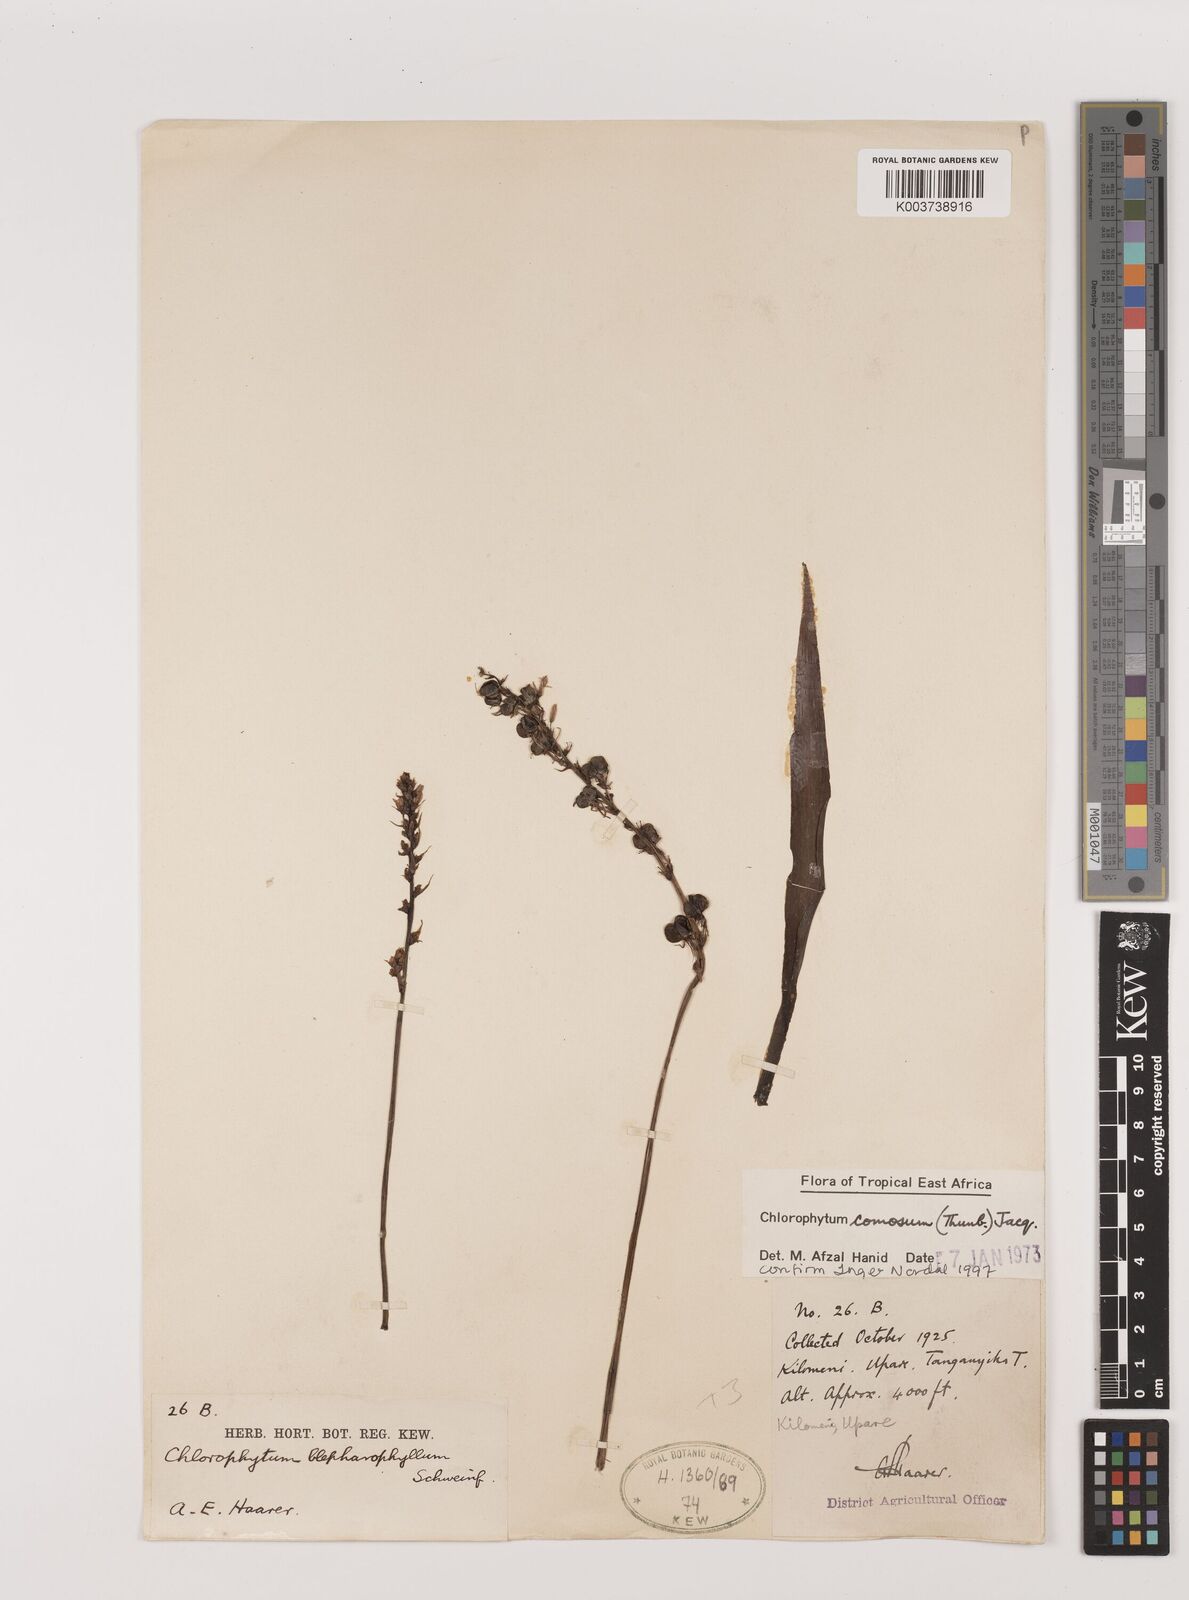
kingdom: Plantae
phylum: Tracheophyta
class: Liliopsida
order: Asparagales
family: Asparagaceae
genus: Chlorophytum
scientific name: Chlorophytum comosum
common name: Spider plant
